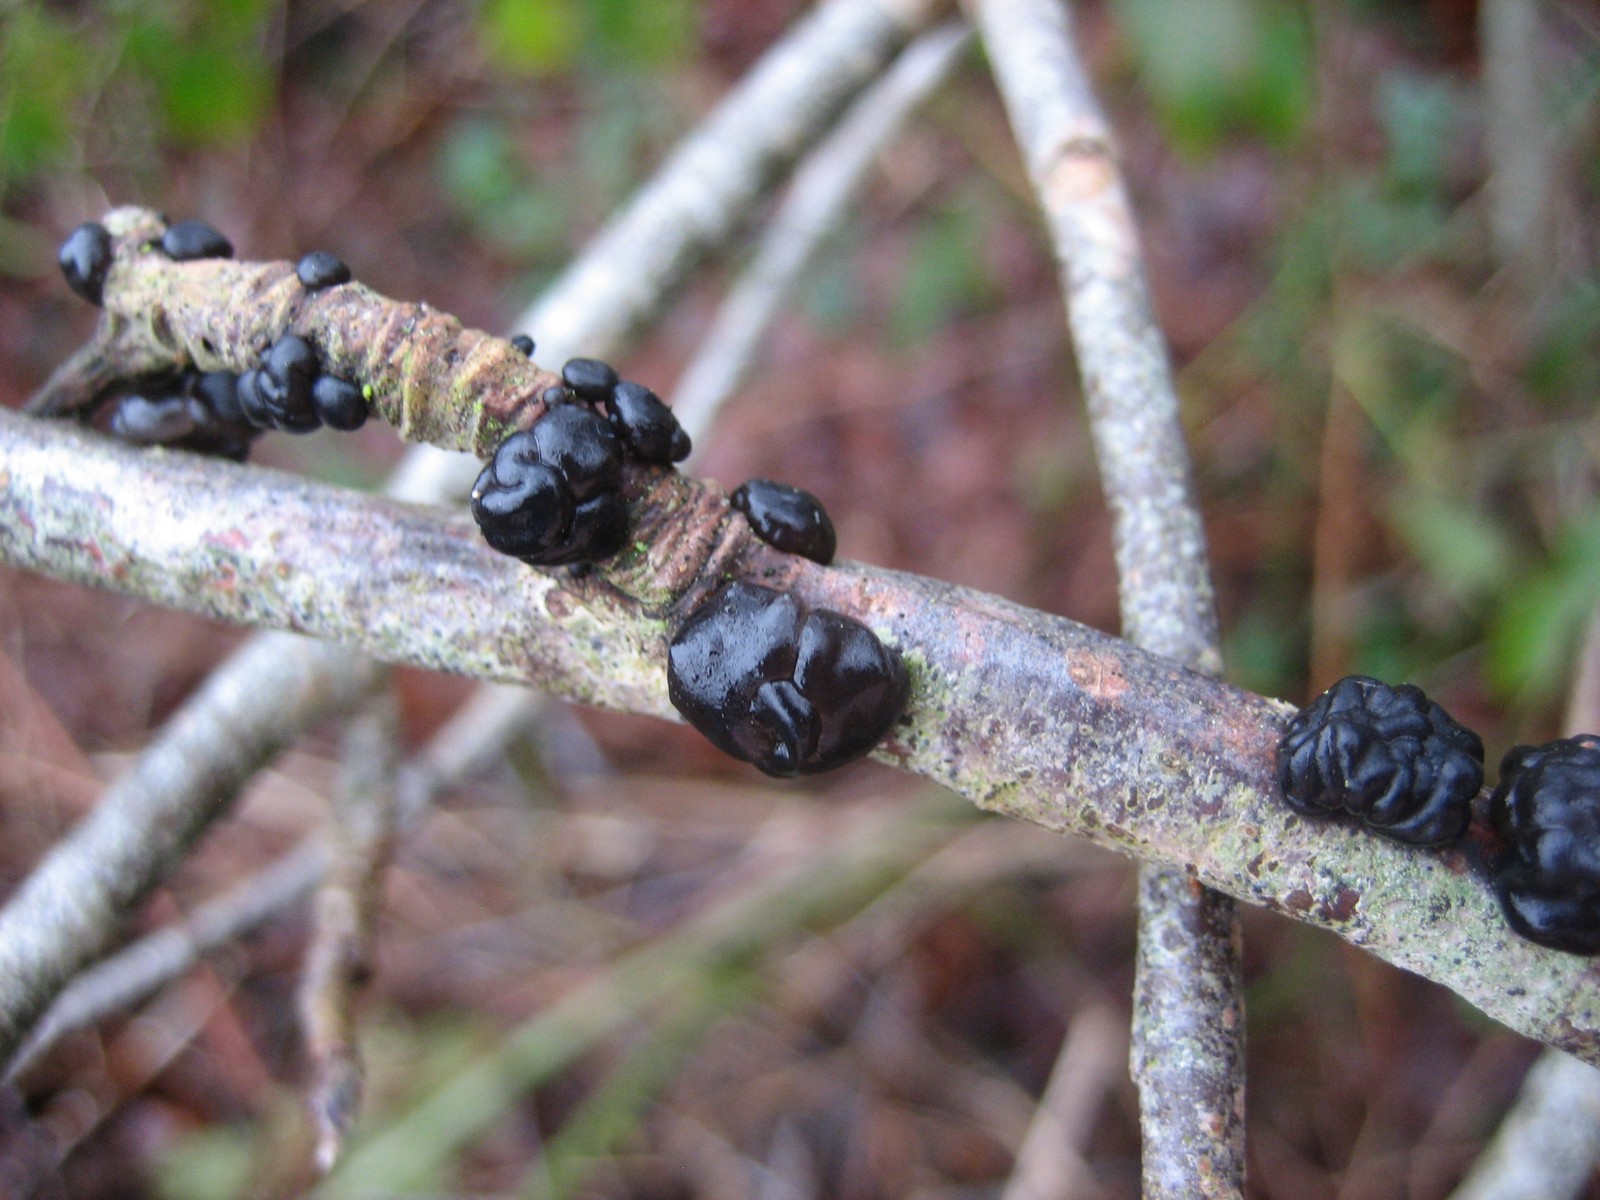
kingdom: Fungi
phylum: Basidiomycota
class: Agaricomycetes
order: Auriculariales
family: Auriculariaceae
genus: Exidia
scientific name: Exidia nigricans
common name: almindelig bævretop
